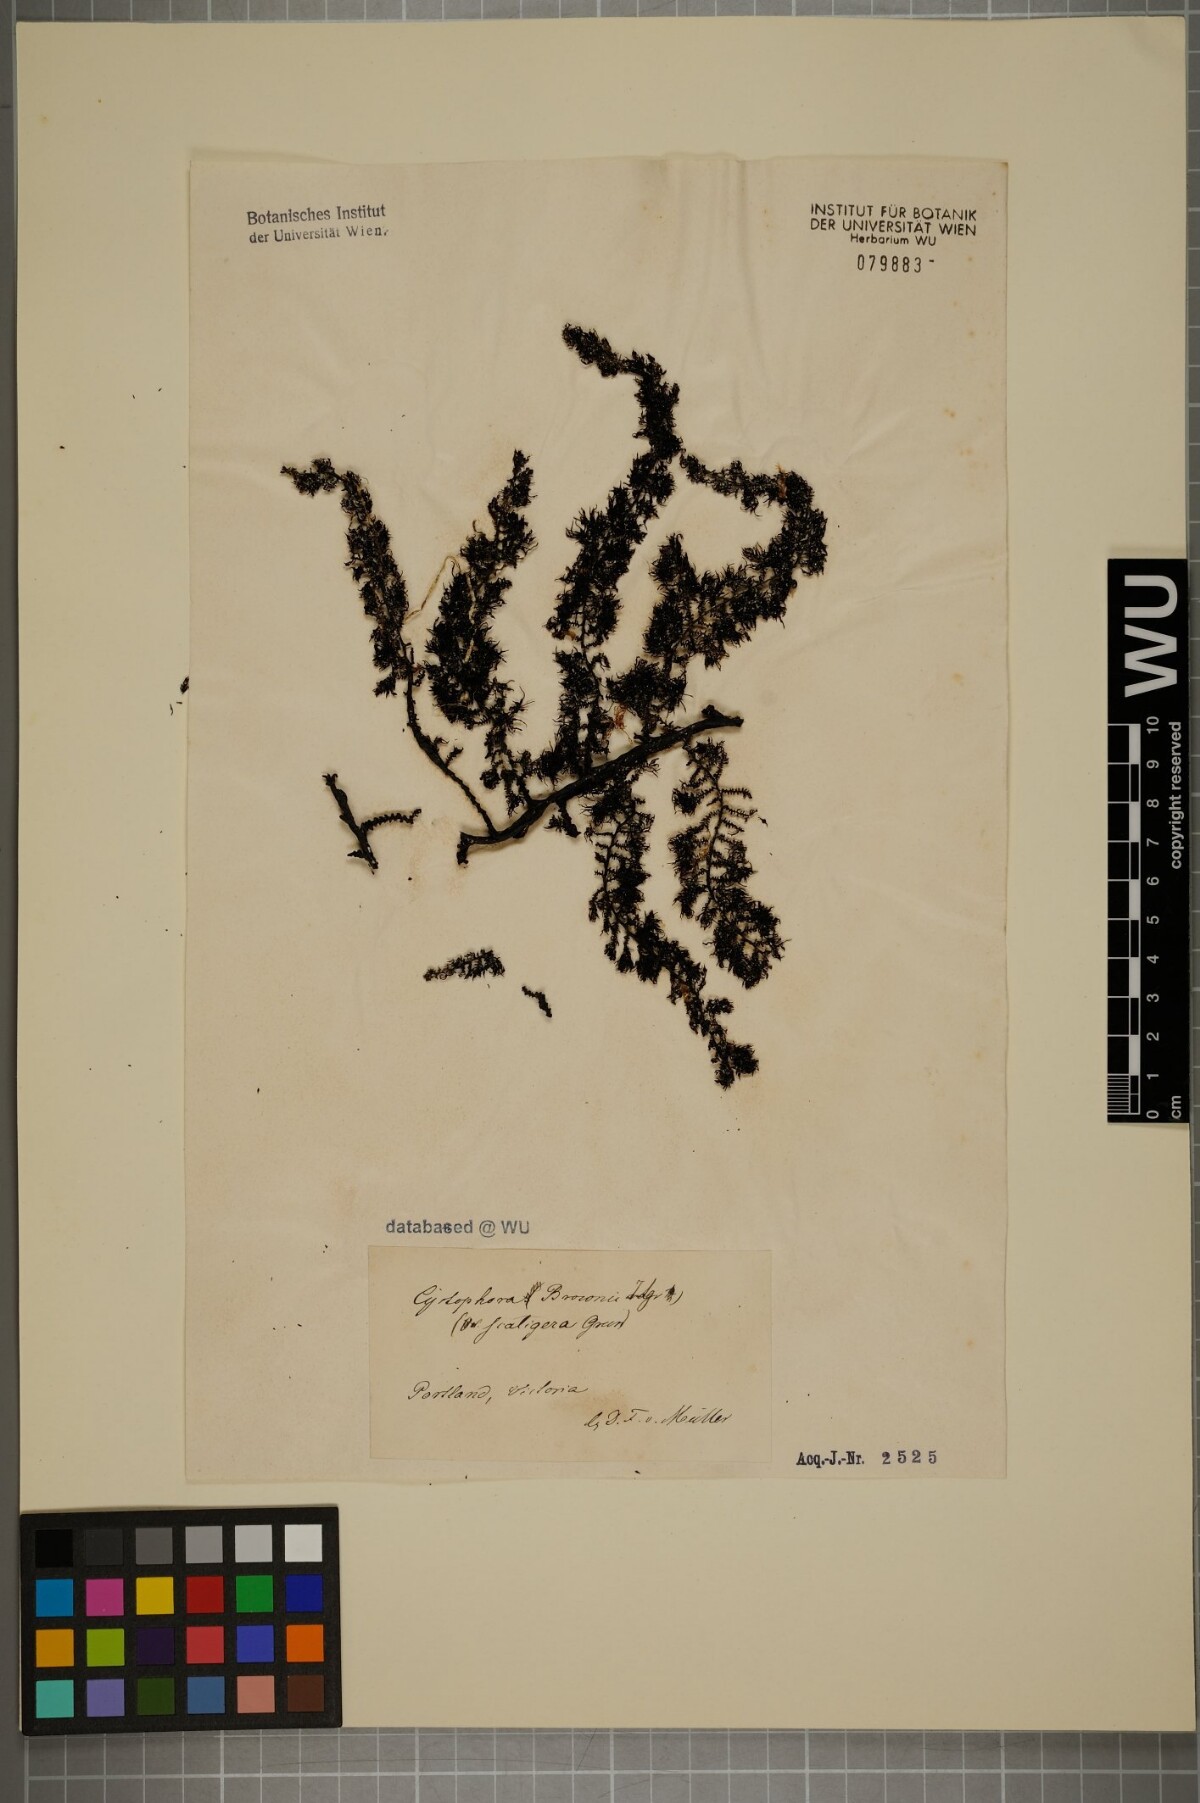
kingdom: Chromista
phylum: Ochrophyta
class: Phaeophyceae
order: Fucales
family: Sargassaceae
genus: Cystophora
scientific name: Cystophora
